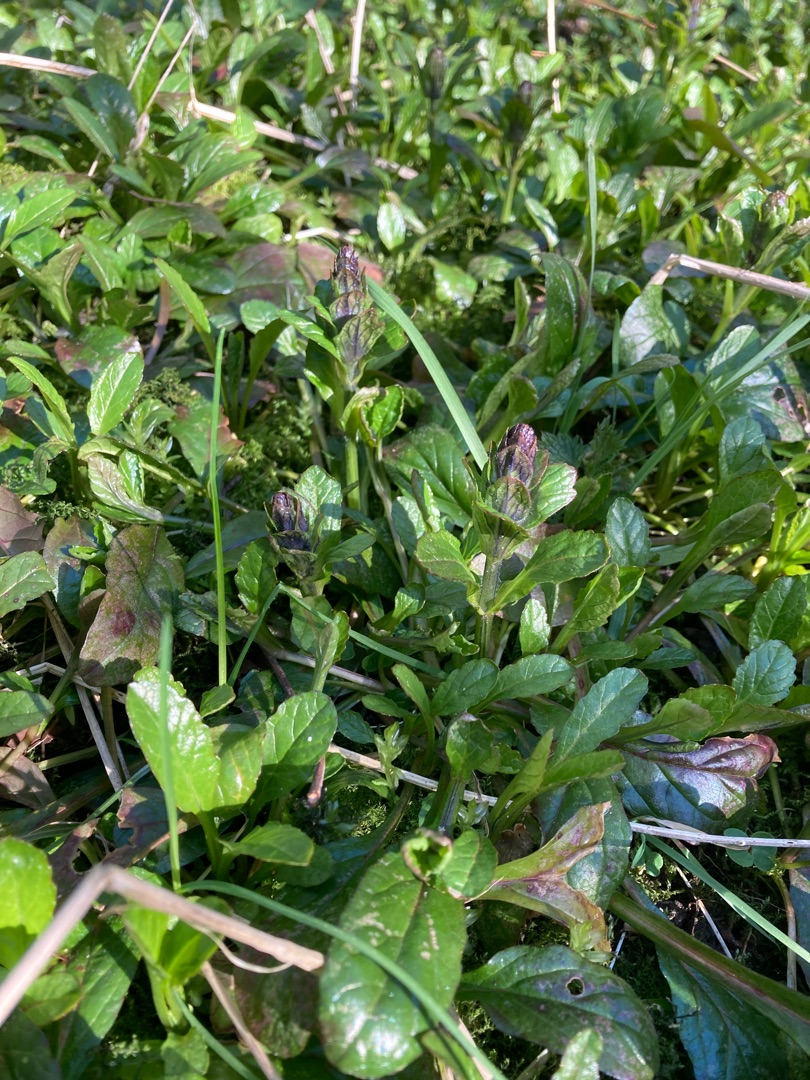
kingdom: Plantae
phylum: Tracheophyta
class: Magnoliopsida
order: Lamiales
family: Lamiaceae
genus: Ajuga
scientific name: Ajuga reptans
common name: Krybende læbeløs
